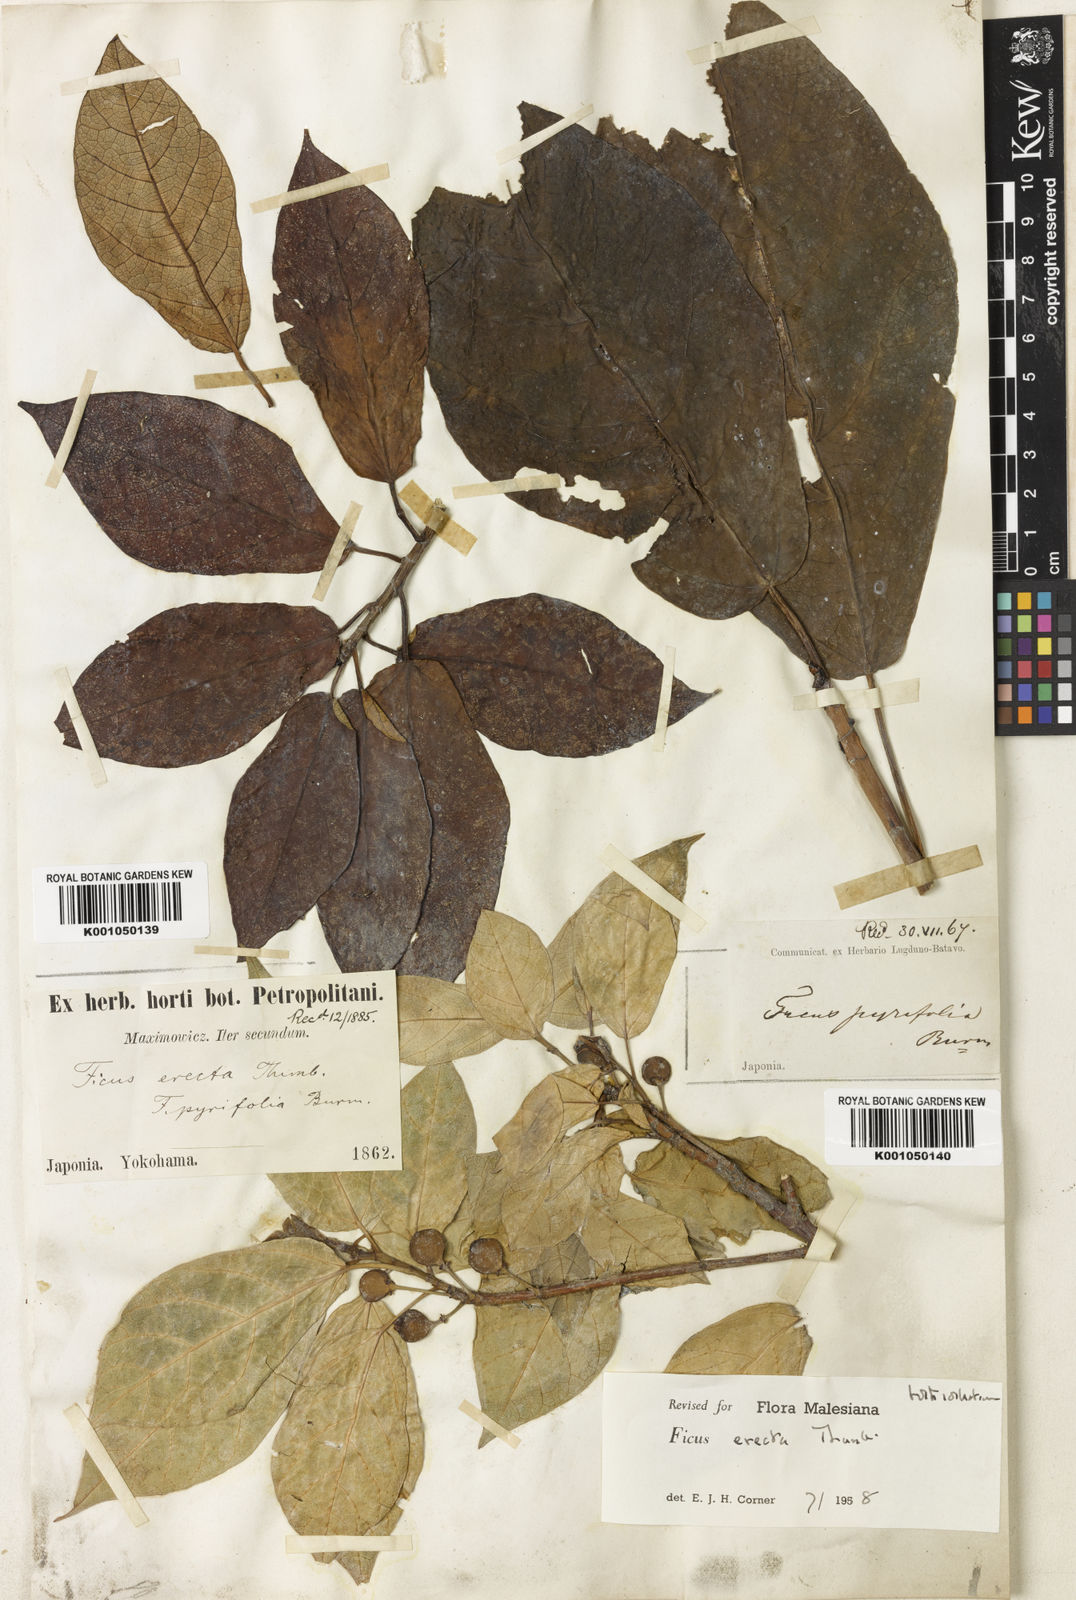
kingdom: Plantae
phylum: Tracheophyta
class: Magnoliopsida
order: Rosales
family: Moraceae
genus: Ficus
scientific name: Ficus erecta
